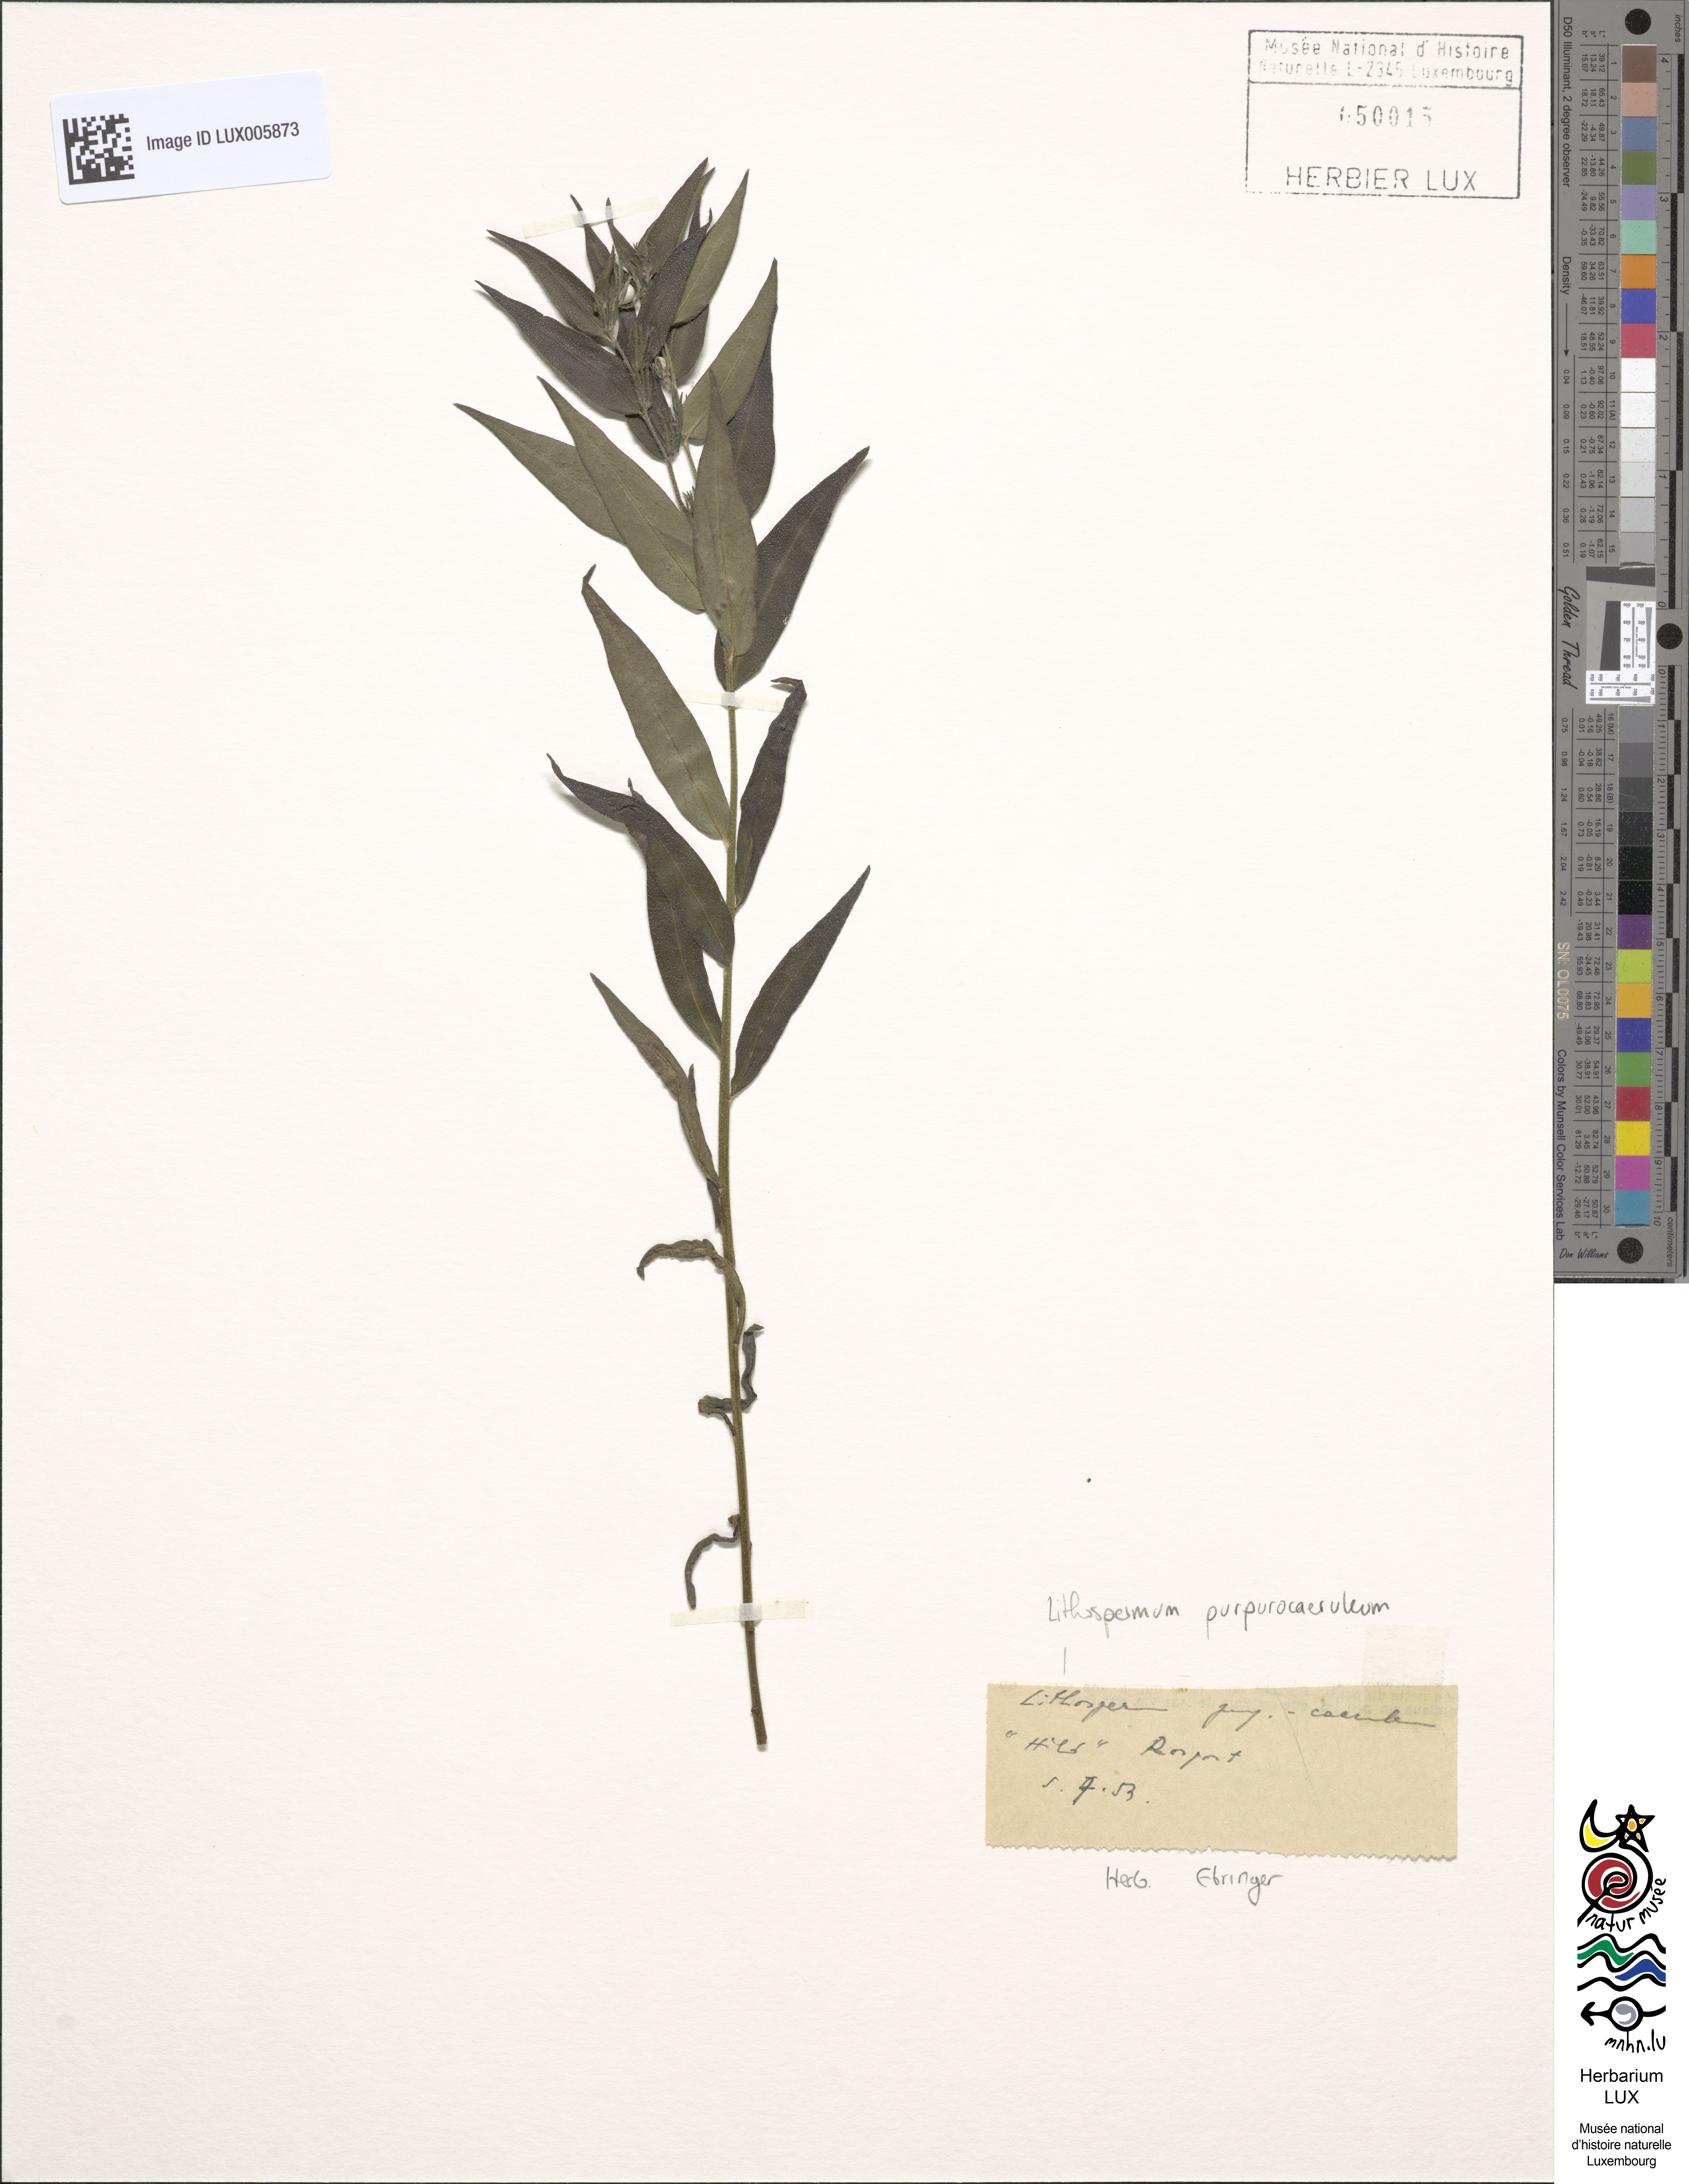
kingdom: Plantae
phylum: Tracheophyta
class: Magnoliopsida
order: Boraginales
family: Boraginaceae
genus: Aegonychon
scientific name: Aegonychon purpurocaeruleum
